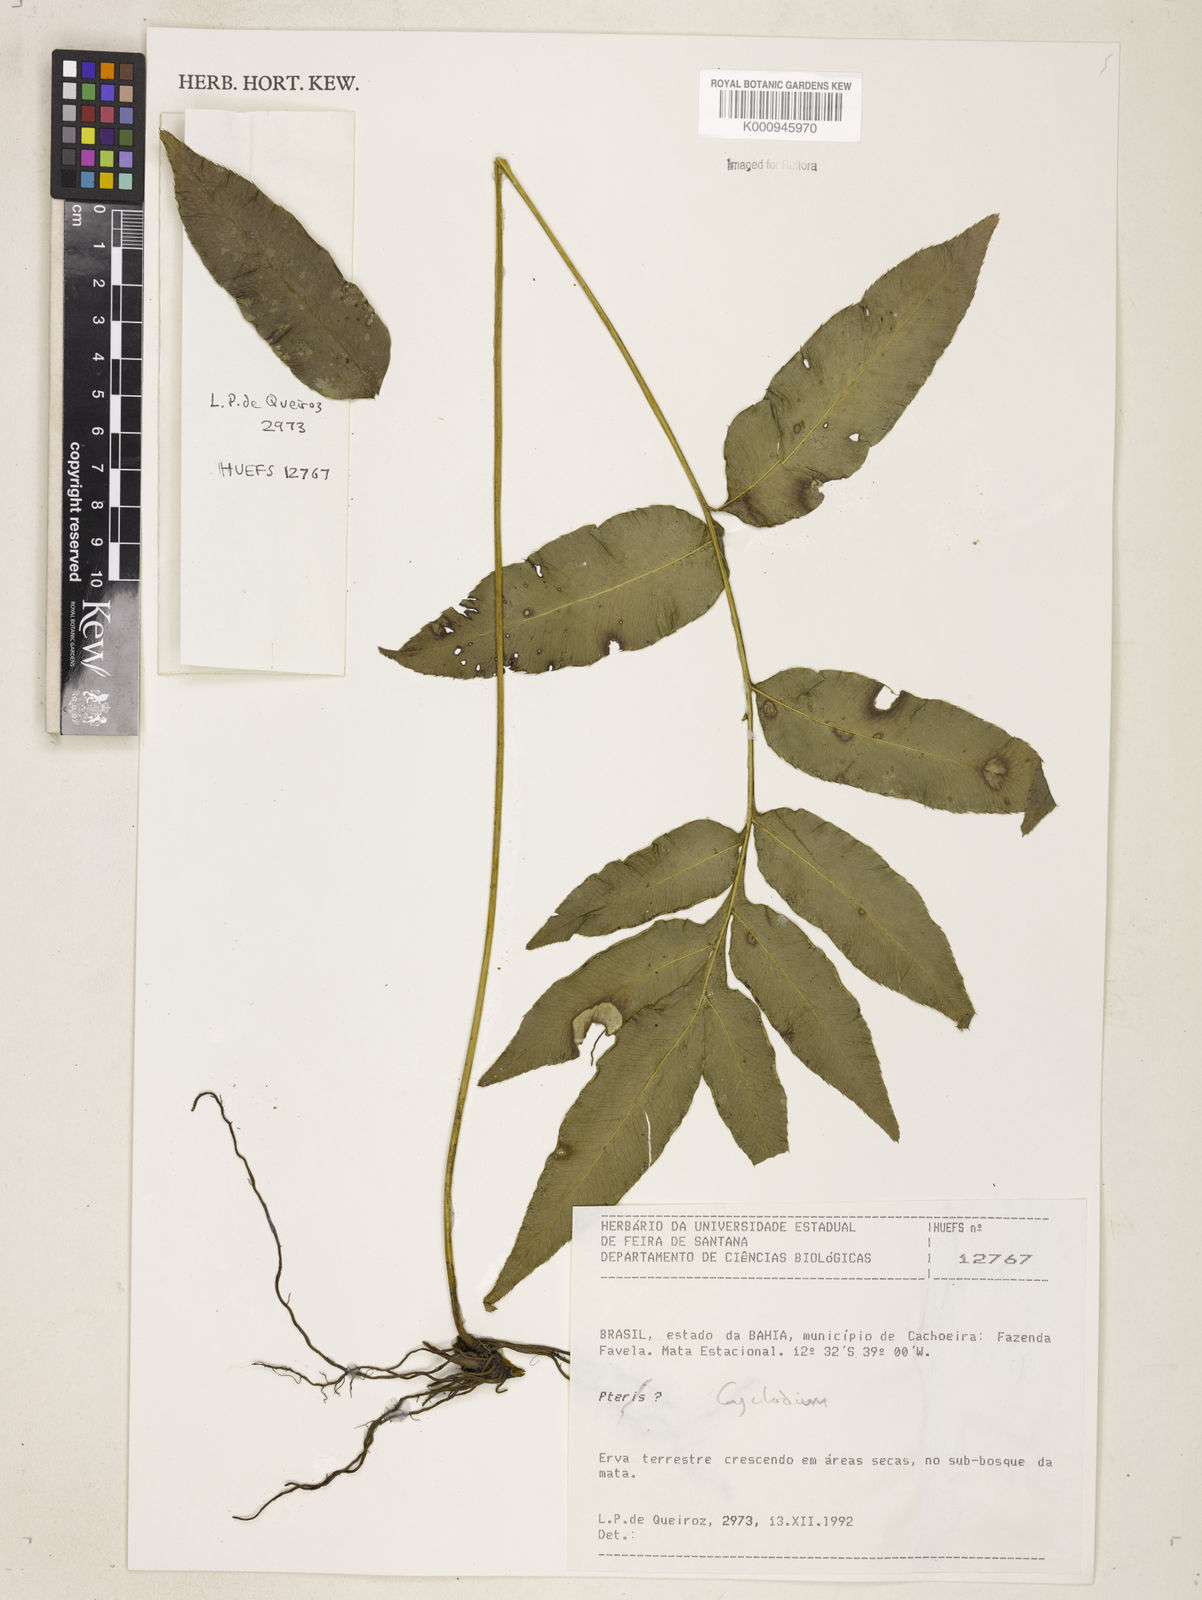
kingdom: Plantae
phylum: Tracheophyta
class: Polypodiopsida
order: Polypodiales
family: Dryopteridaceae
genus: Cyclodium
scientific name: Cyclodium meniscioides
